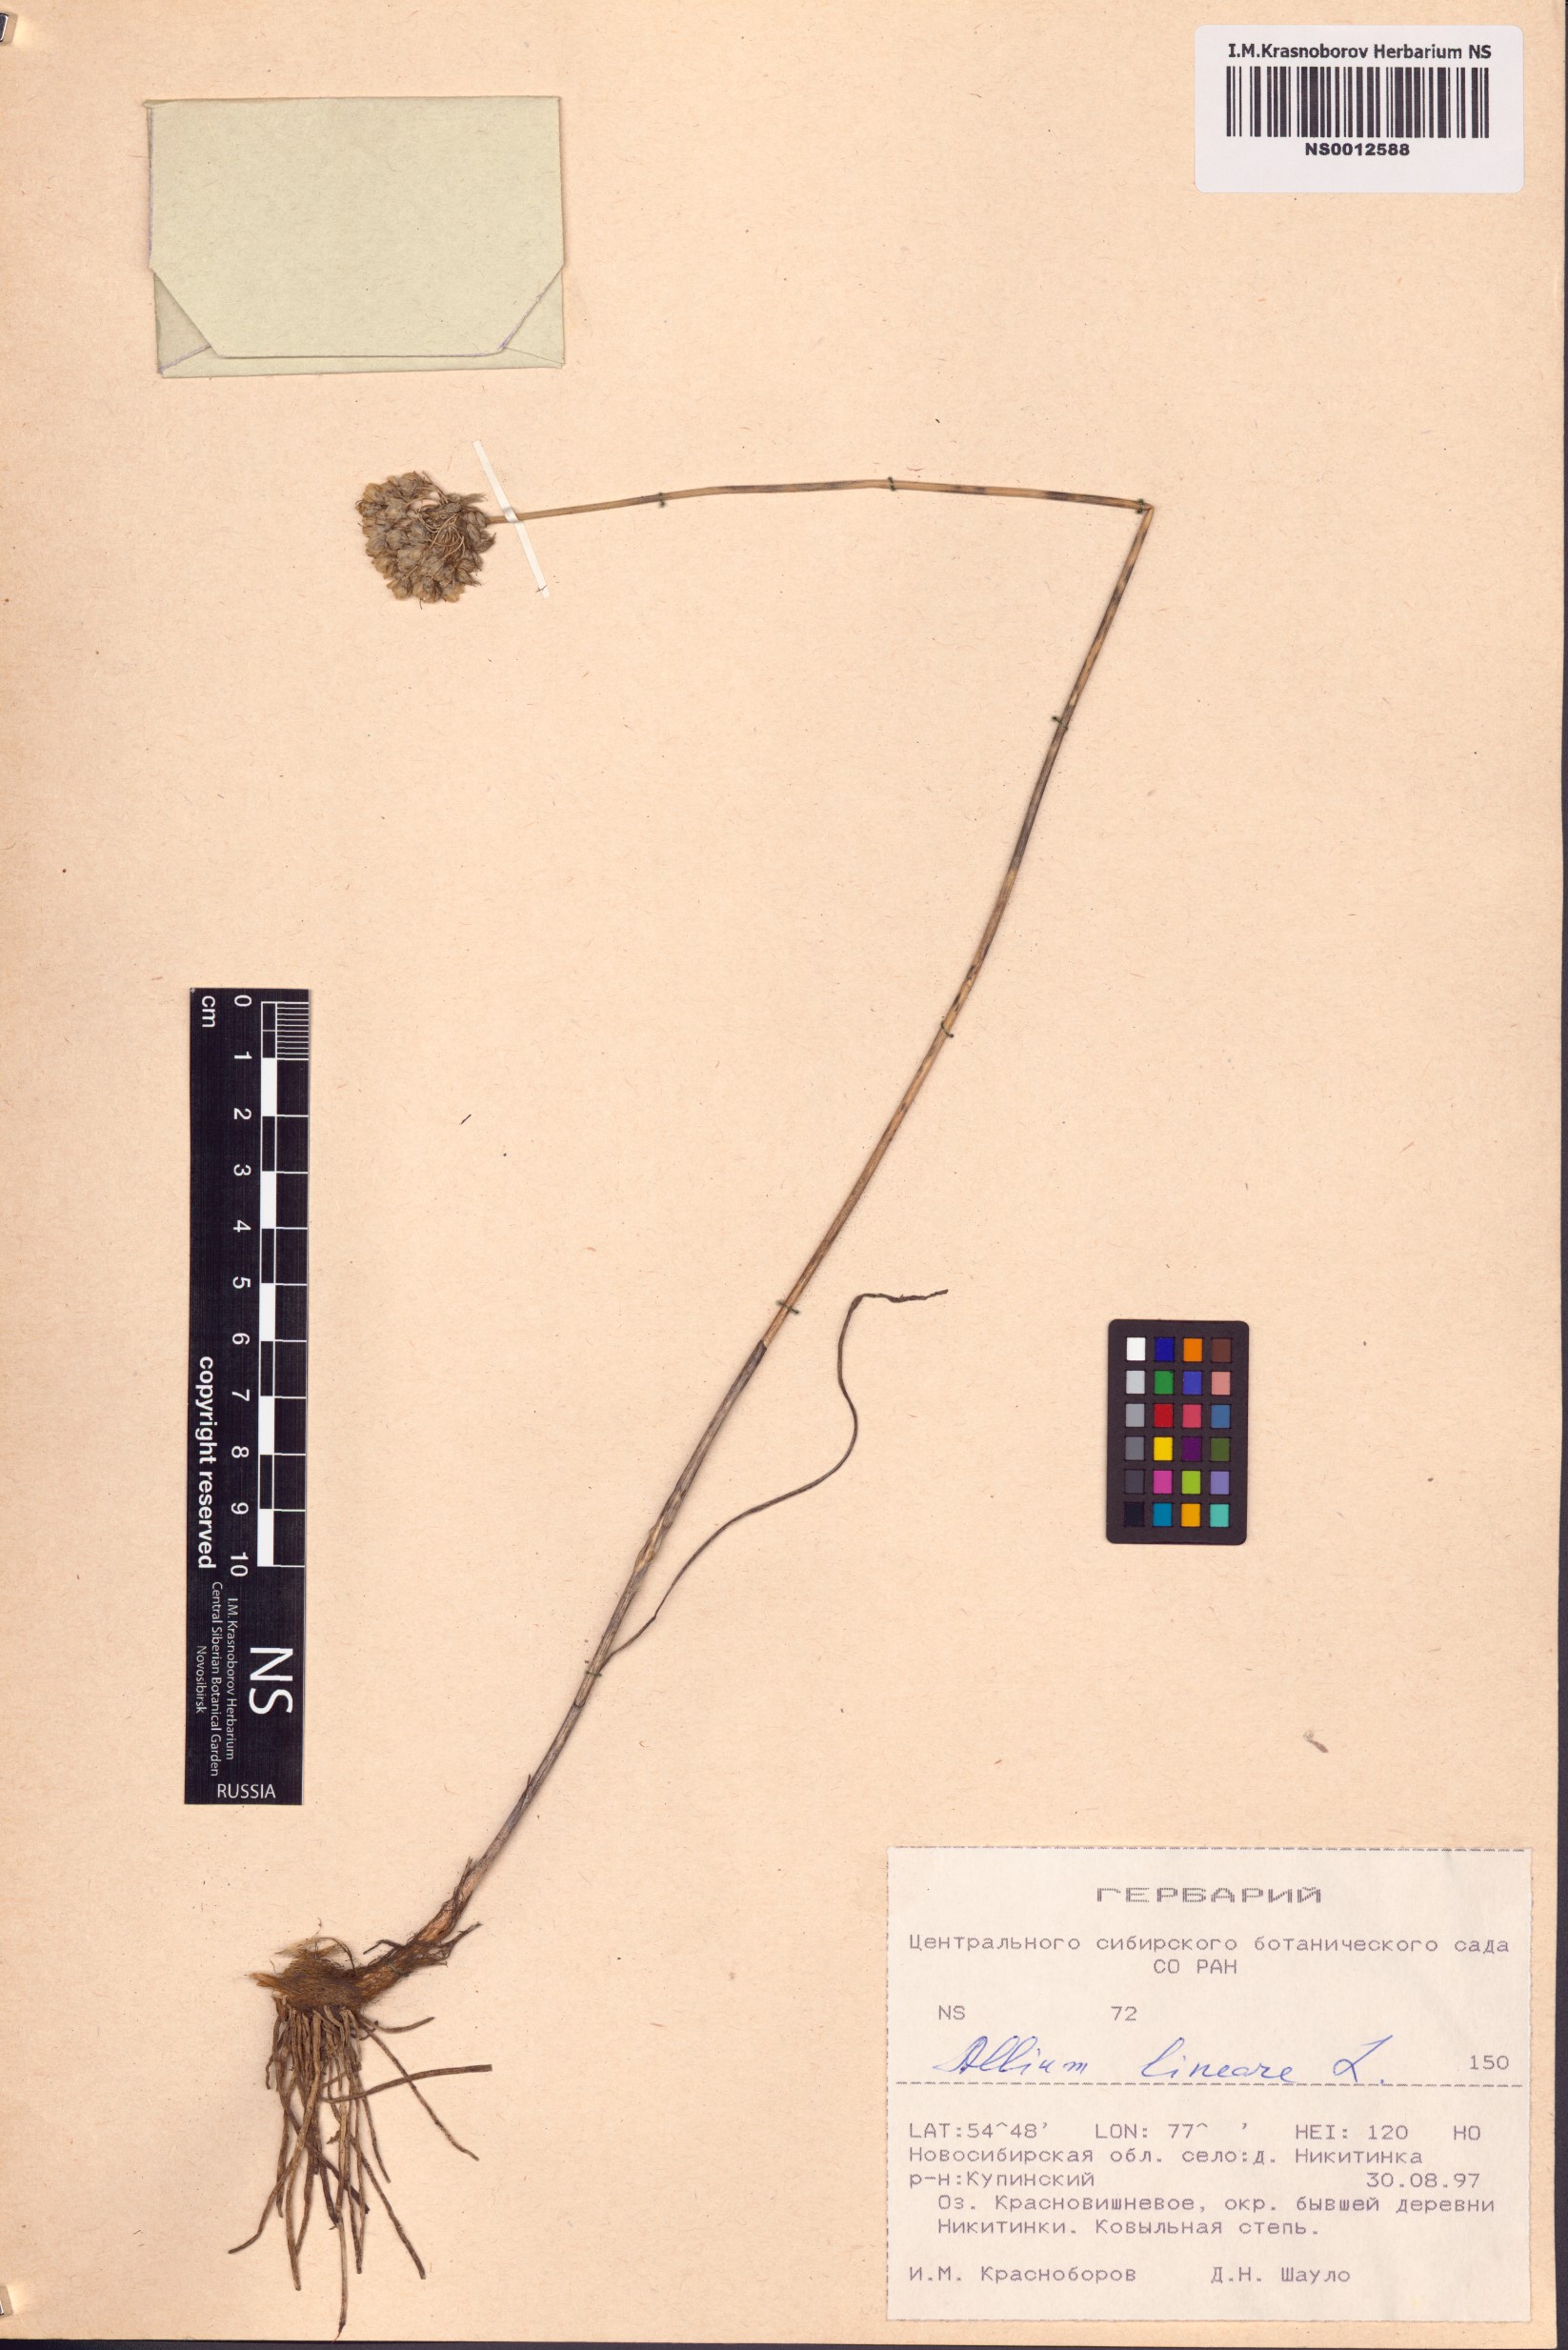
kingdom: Plantae
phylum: Tracheophyta
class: Liliopsida
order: Asparagales
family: Amaryllidaceae
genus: Allium
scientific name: Allium lineare
